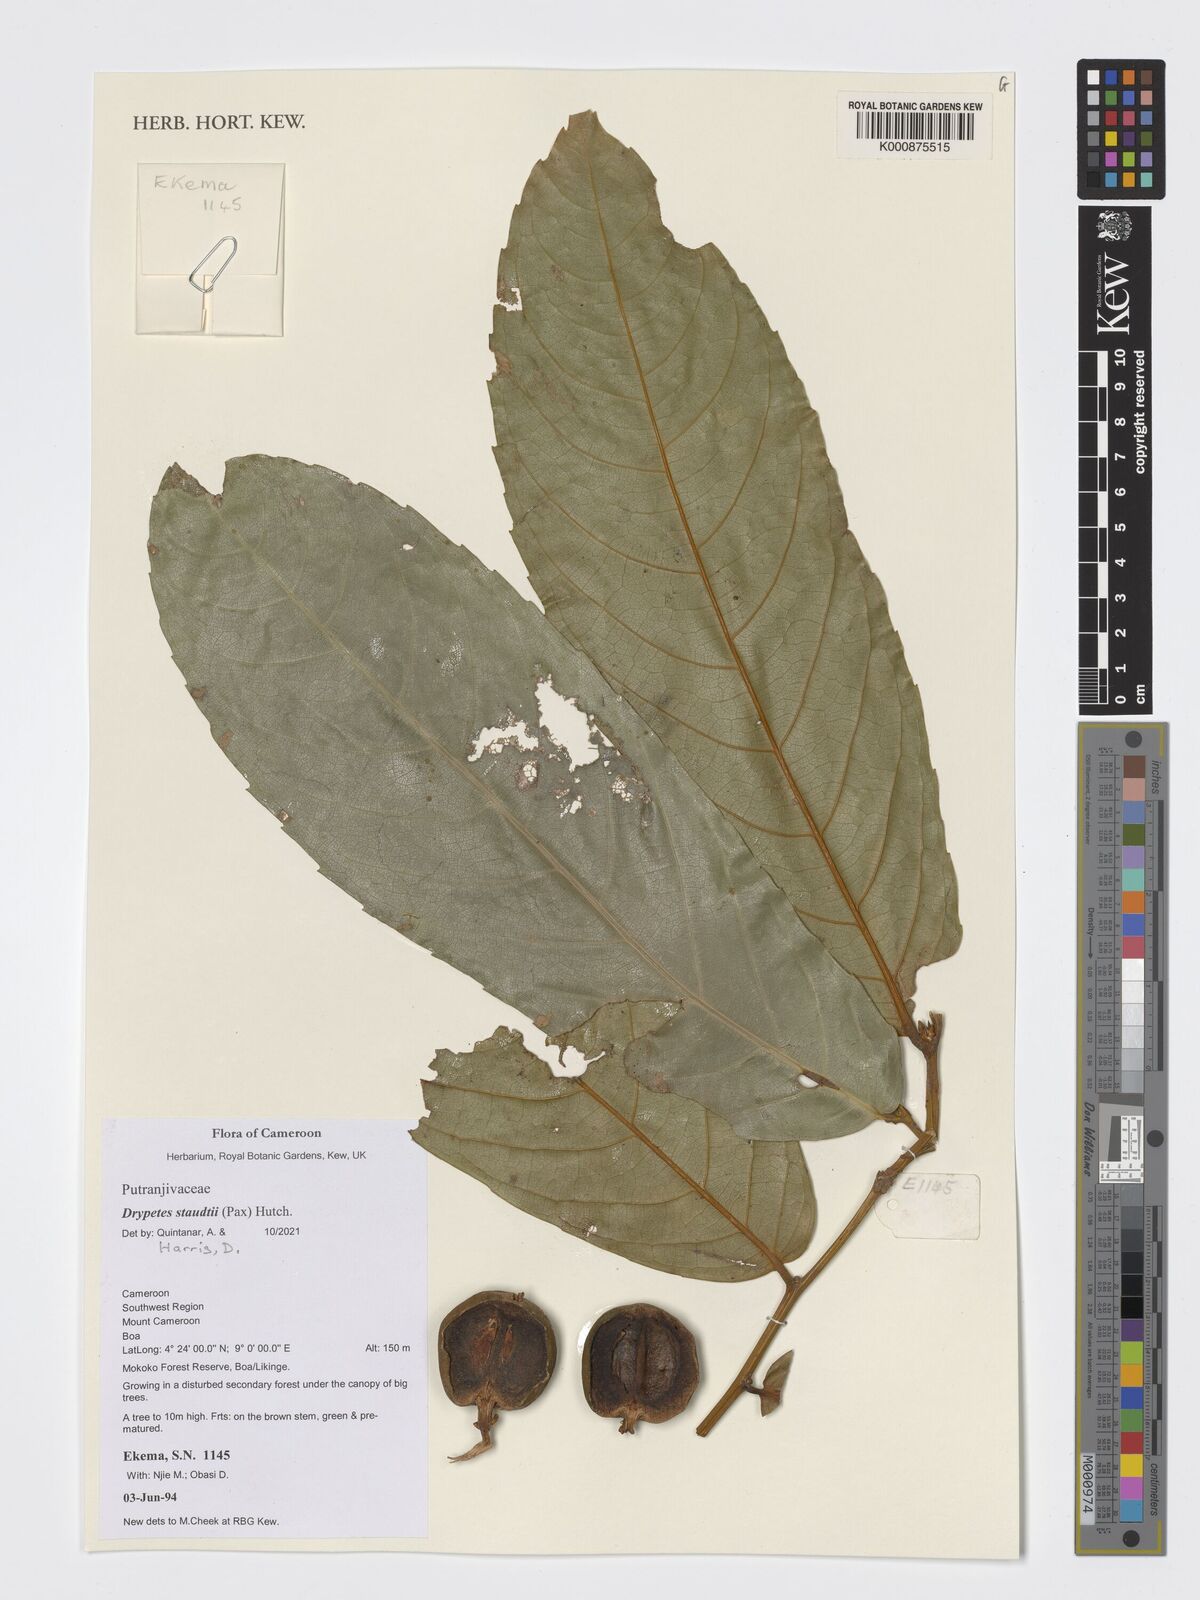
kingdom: Plantae
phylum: Tracheophyta
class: Magnoliopsida
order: Malpighiales
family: Putranjivaceae
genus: Drypetes
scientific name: Drypetes staudtii
